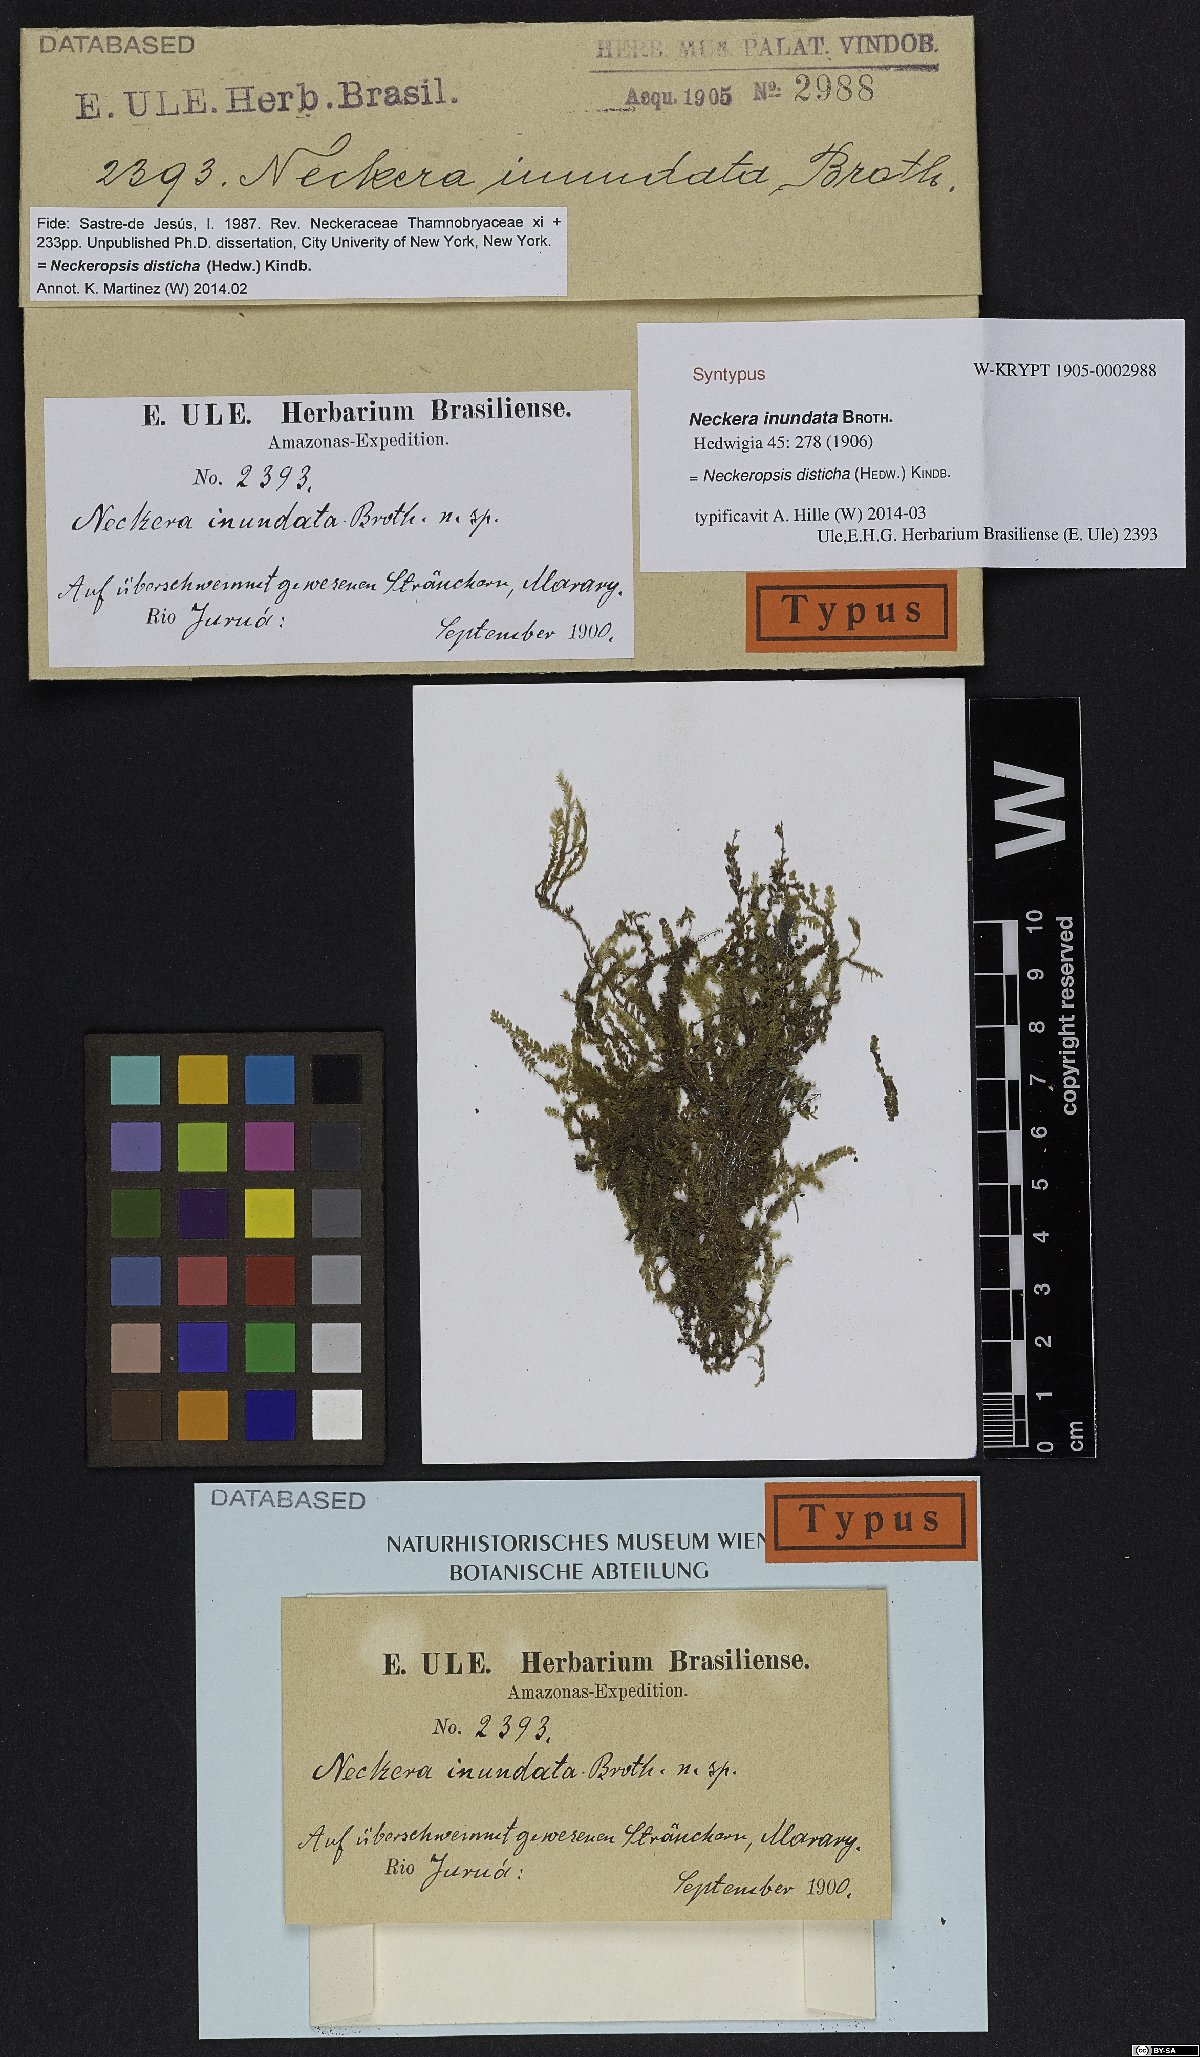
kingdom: Plantae
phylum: Bryophyta
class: Bryopsida
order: Hypnales
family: Neckeraceae
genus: Neckeropsis
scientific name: Neckeropsis inundata
